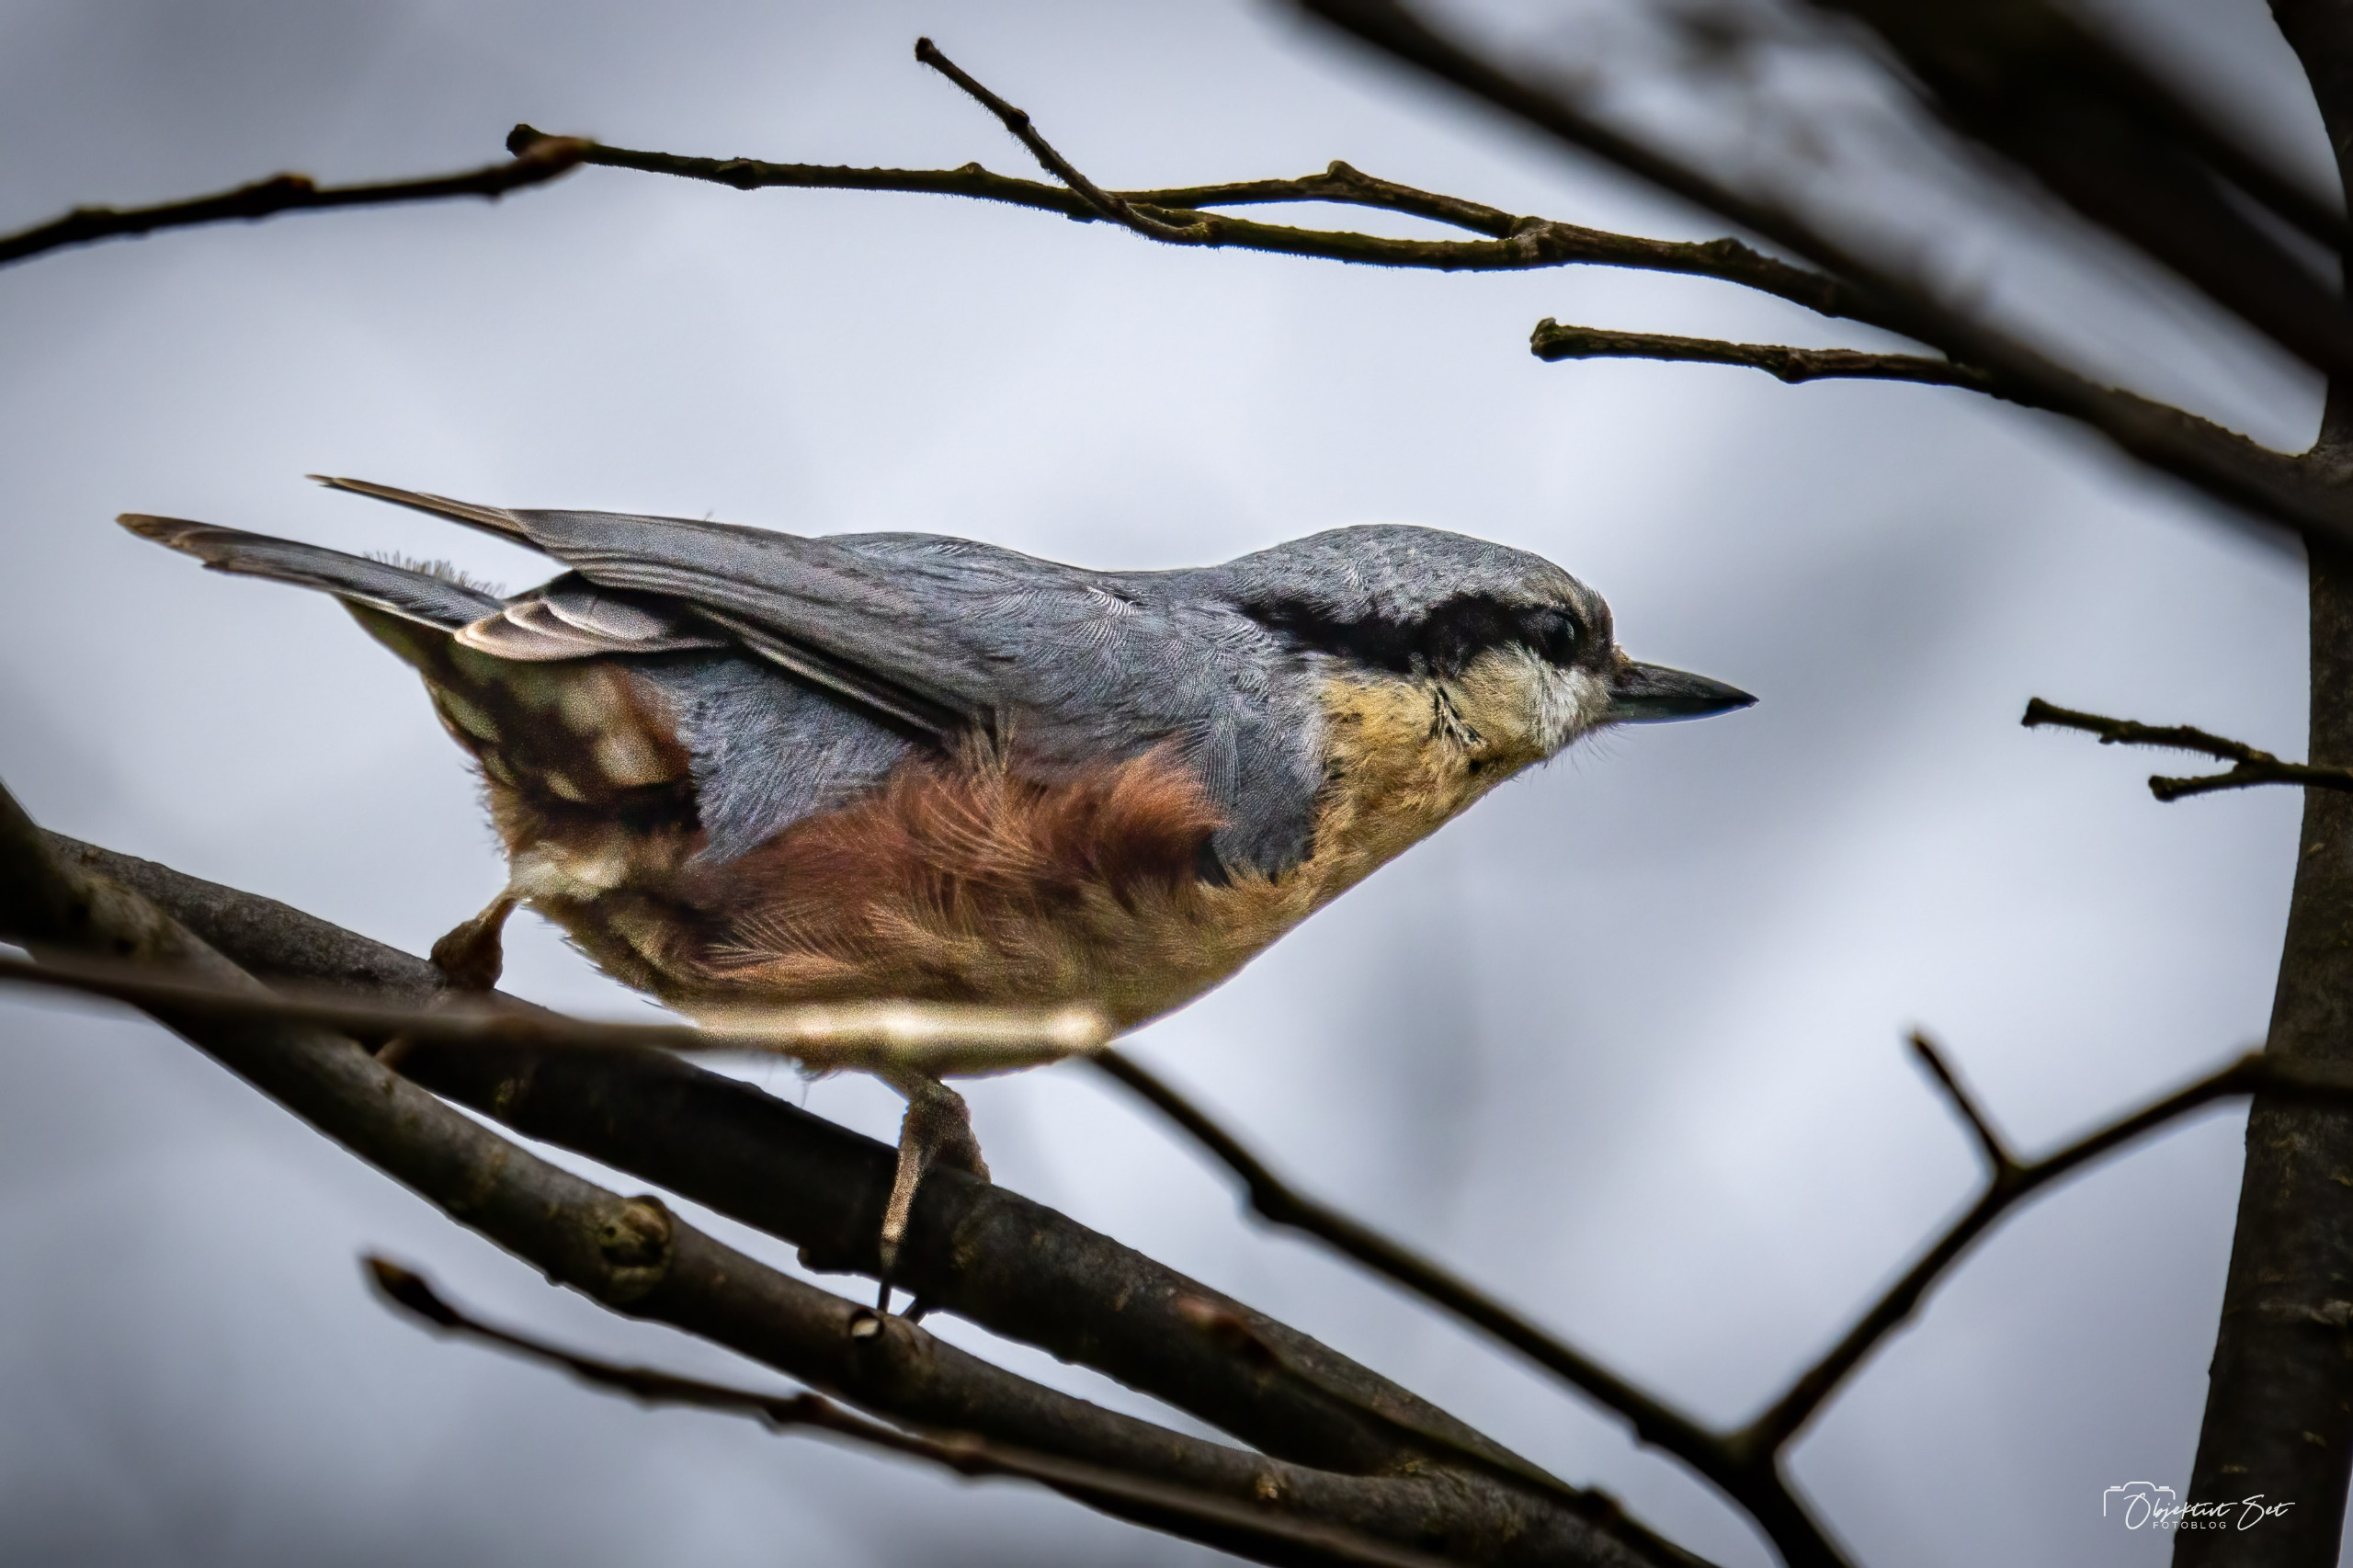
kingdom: Animalia
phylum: Chordata
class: Aves
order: Passeriformes
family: Sittidae
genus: Sitta
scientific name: Sitta europaea
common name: Spætmejse
